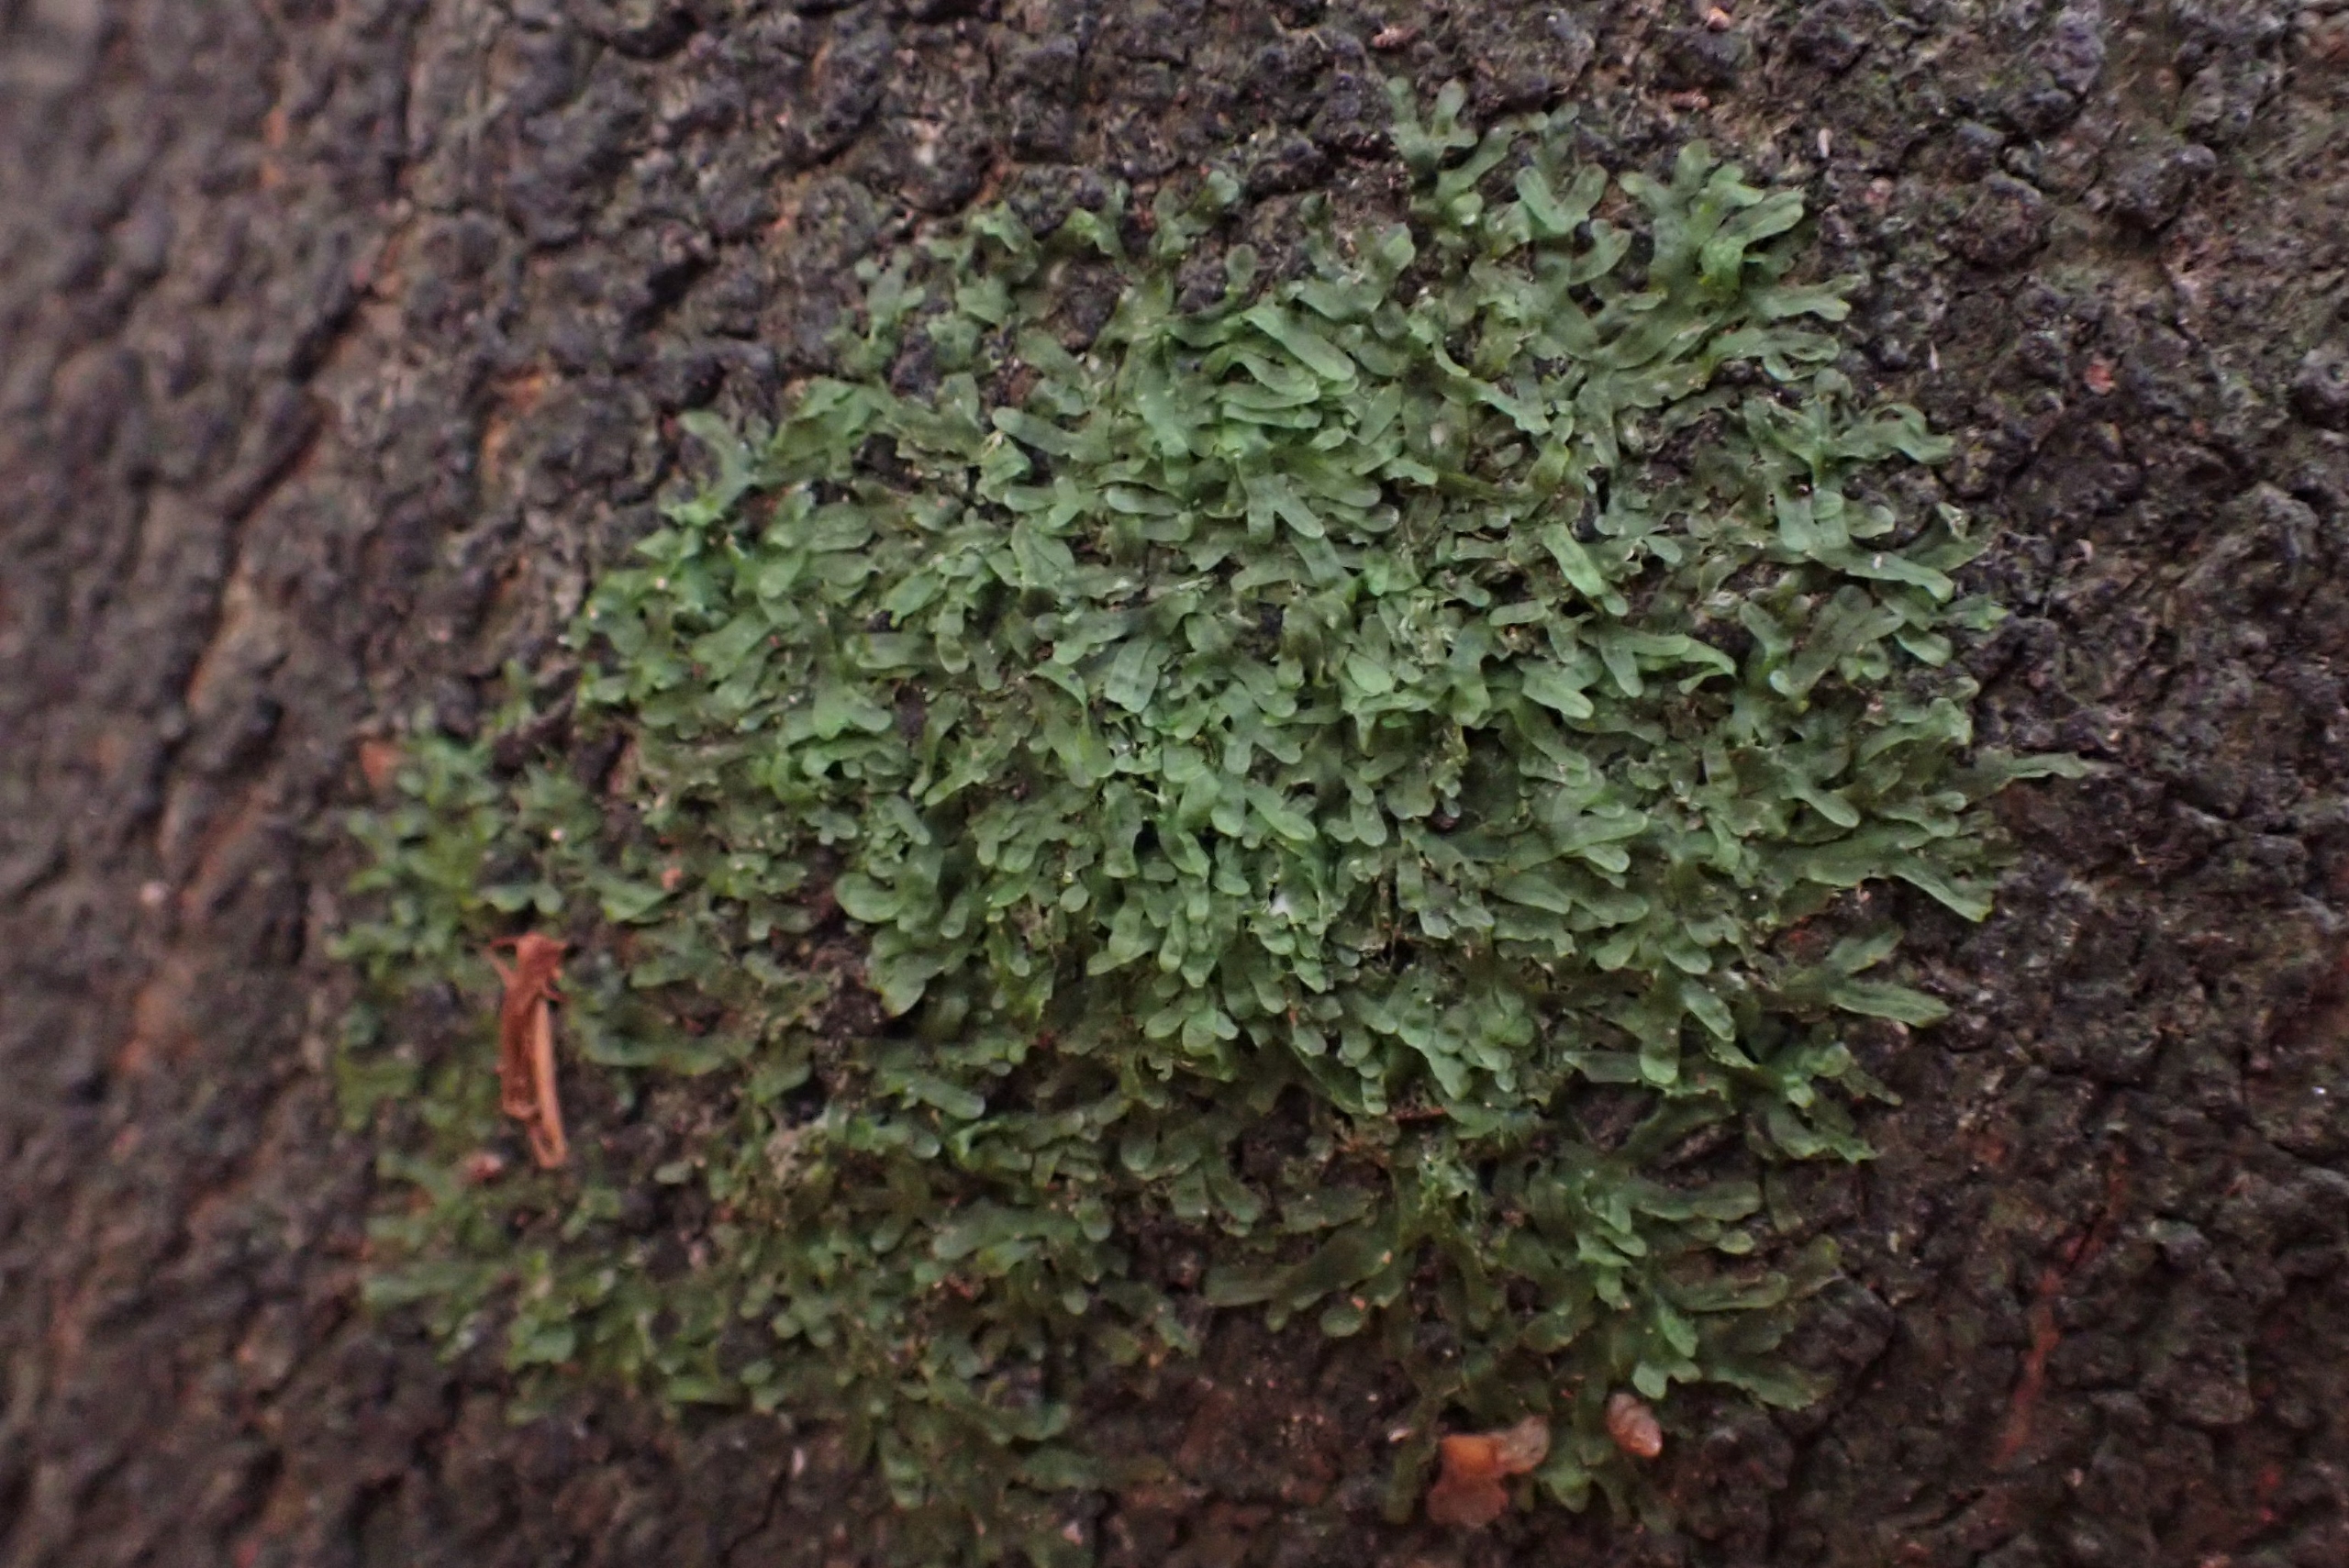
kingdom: Plantae
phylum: Marchantiophyta
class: Jungermanniopsida
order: Metzgeriales
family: Metzgeriaceae
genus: Metzgeria
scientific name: Metzgeria furcata
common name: Almindelig gaffelløv
